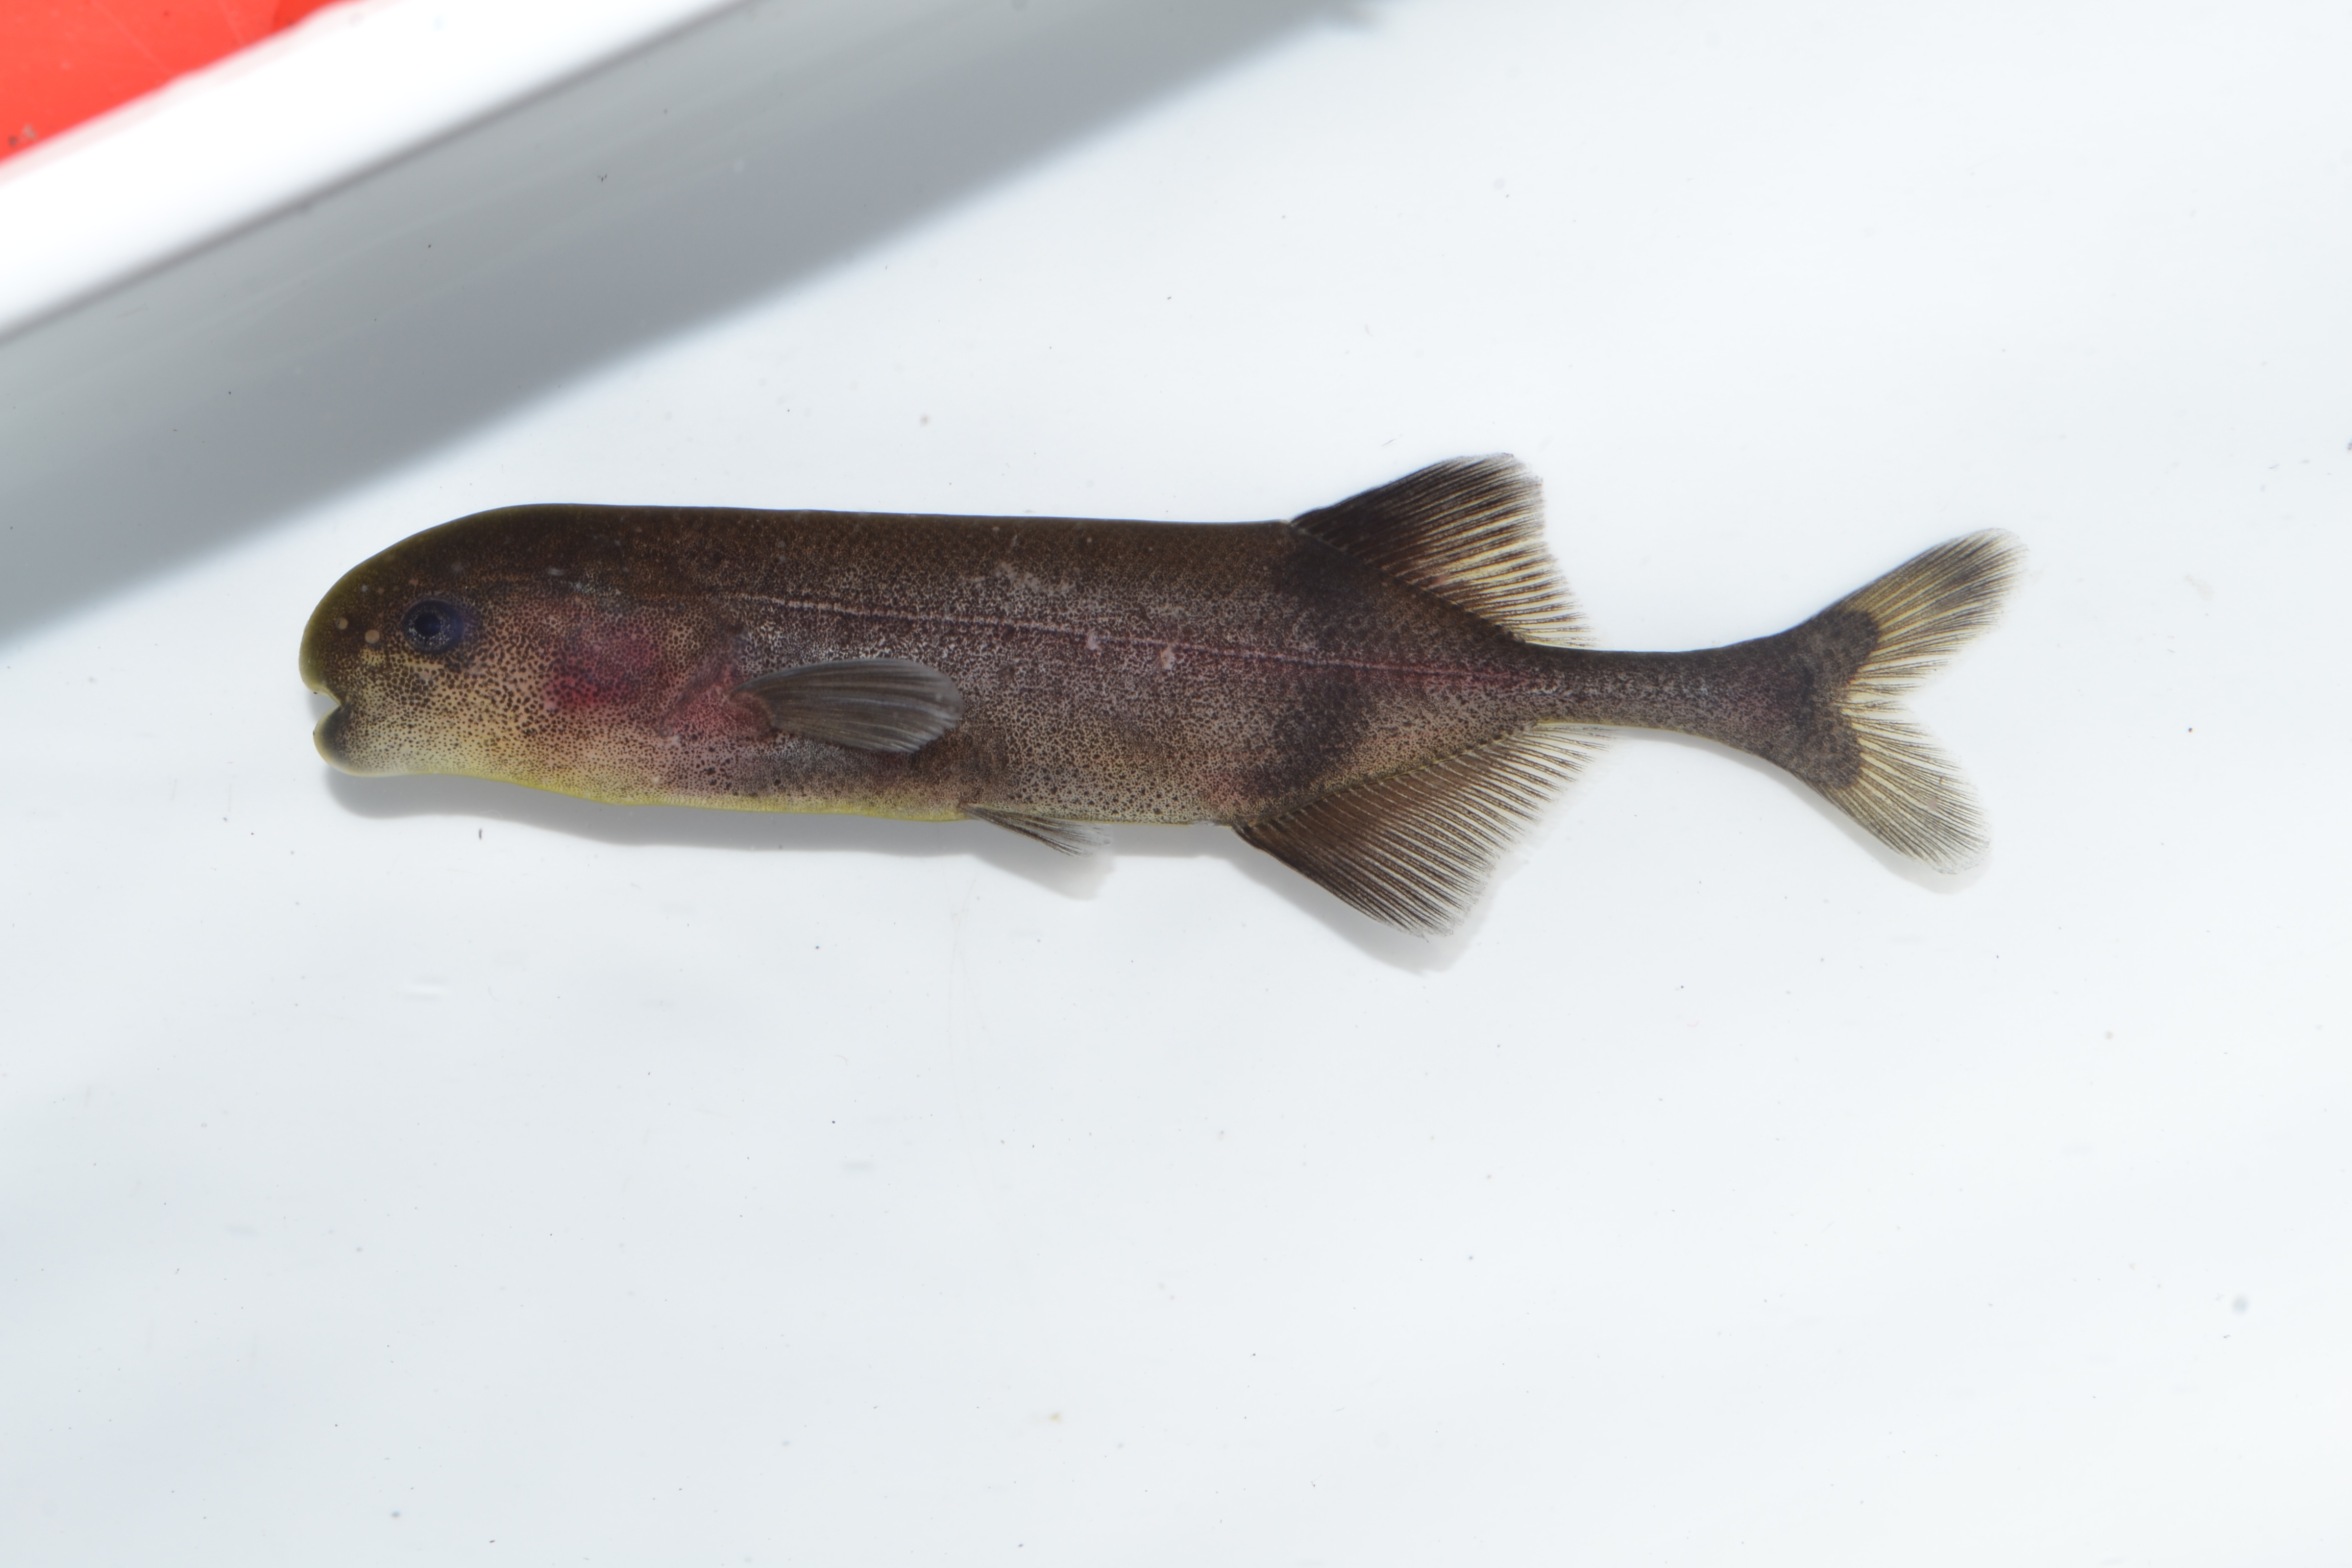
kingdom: Animalia
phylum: Chordata
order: Osteoglossiformes
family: Mormyridae
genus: Hippopotamyrus
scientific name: Hippopotamyrus szaboi
